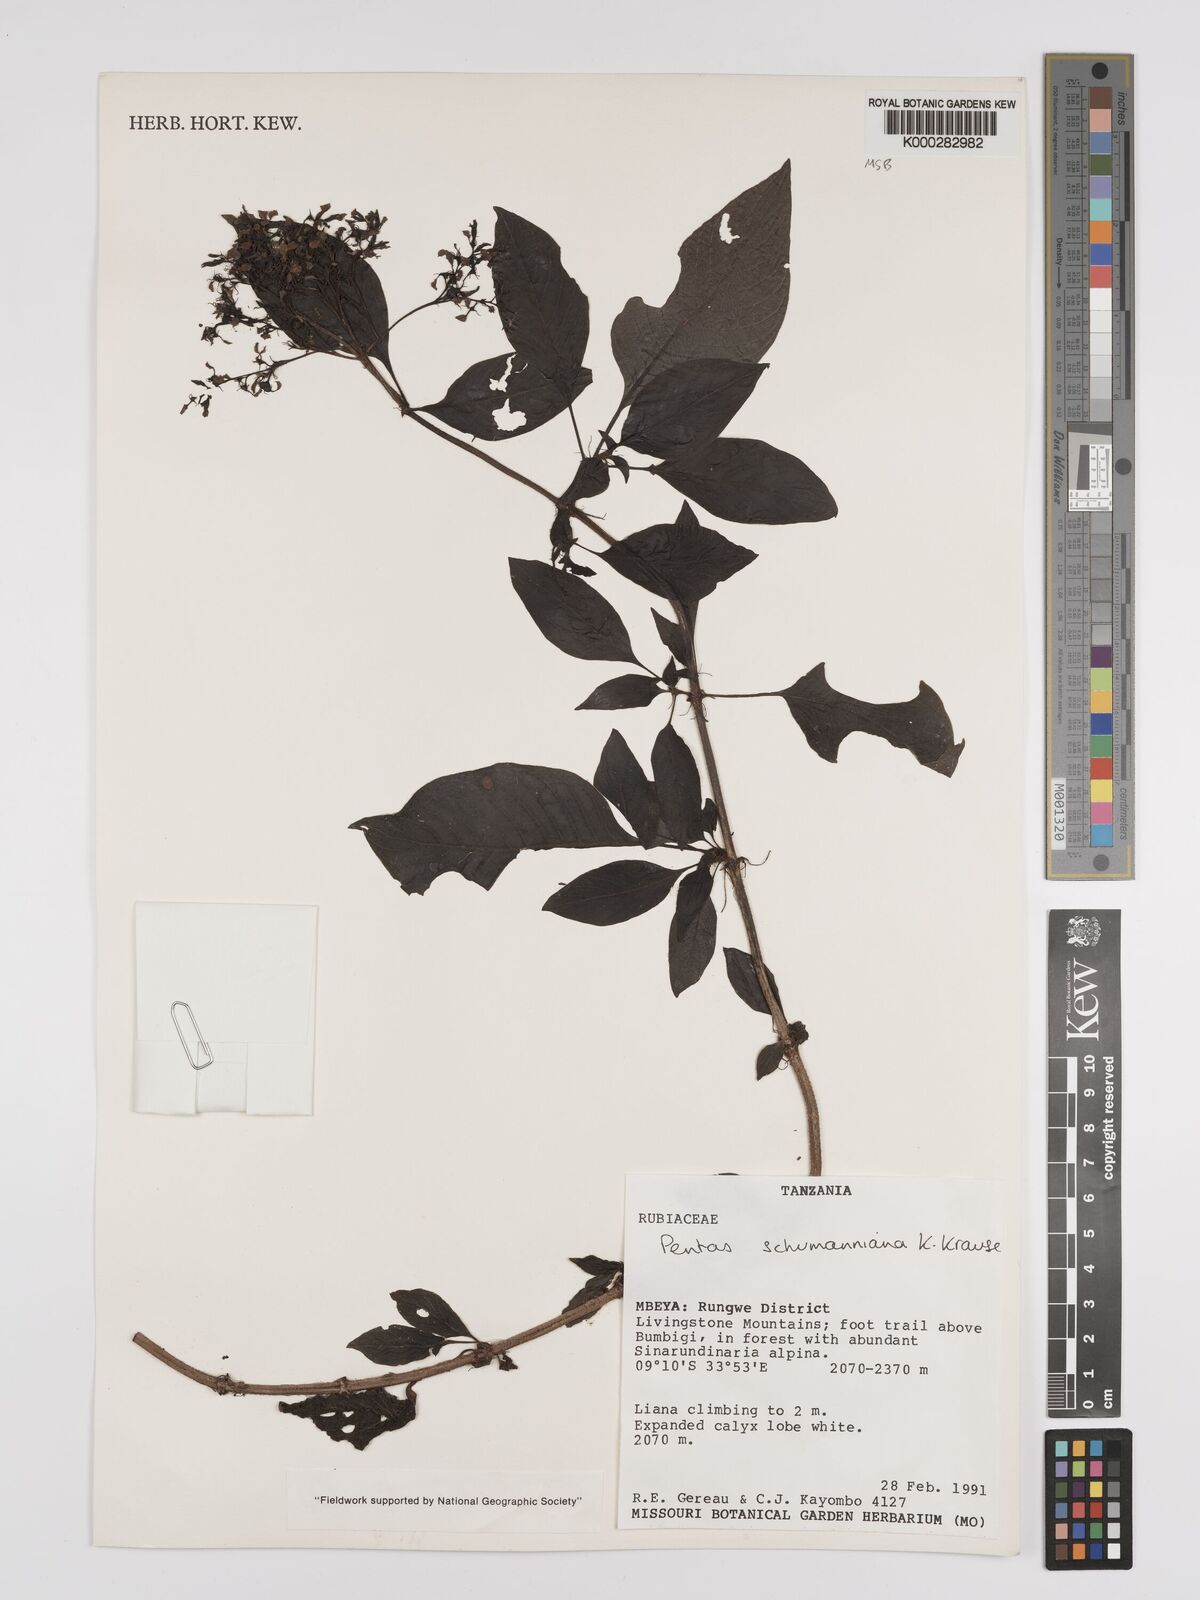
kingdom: Plantae
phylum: Tracheophyta
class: Magnoliopsida
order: Gentianales
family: Rubiaceae
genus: Phyllopentas
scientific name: Phyllopentas schumanniana
